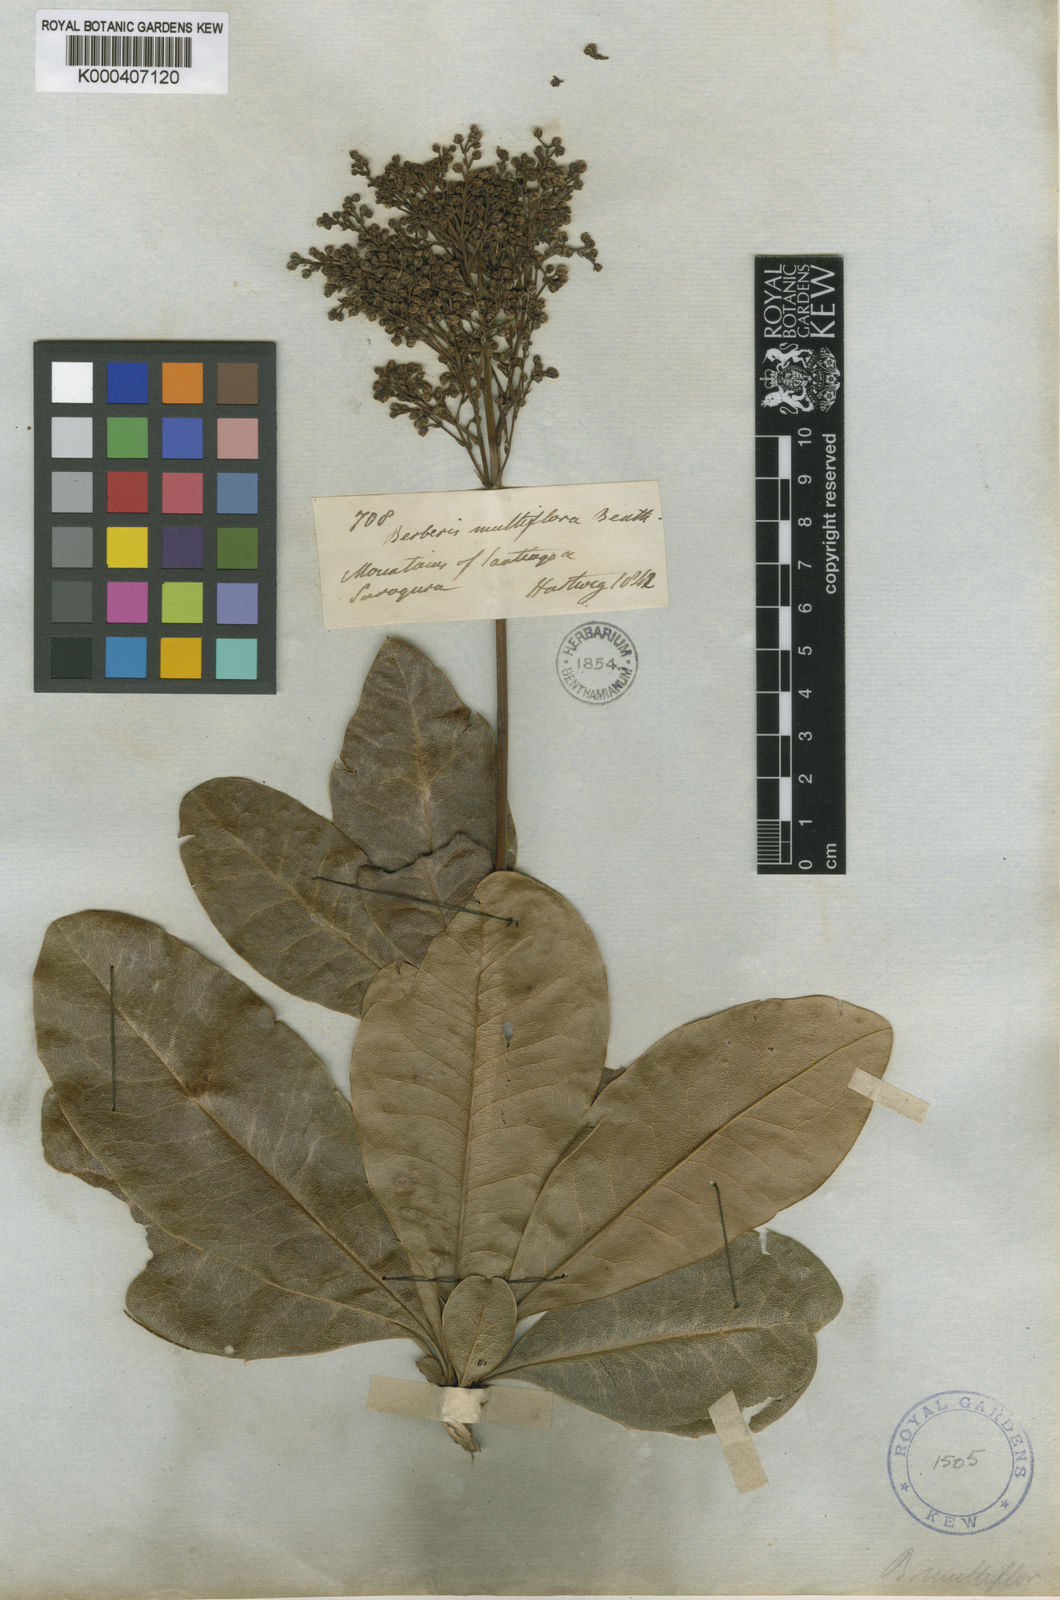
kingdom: Plantae
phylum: Tracheophyta
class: Magnoliopsida
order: Ranunculales
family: Berberidaceae
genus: Berberis
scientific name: Berberis multiflora
